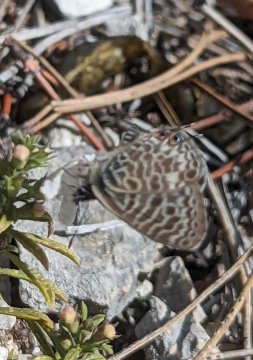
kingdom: Animalia
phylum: Arthropoda
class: Insecta
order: Lepidoptera
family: Lycaenidae
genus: Leptotes
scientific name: Leptotes pirithous
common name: Lang's Short-tailed Blue
